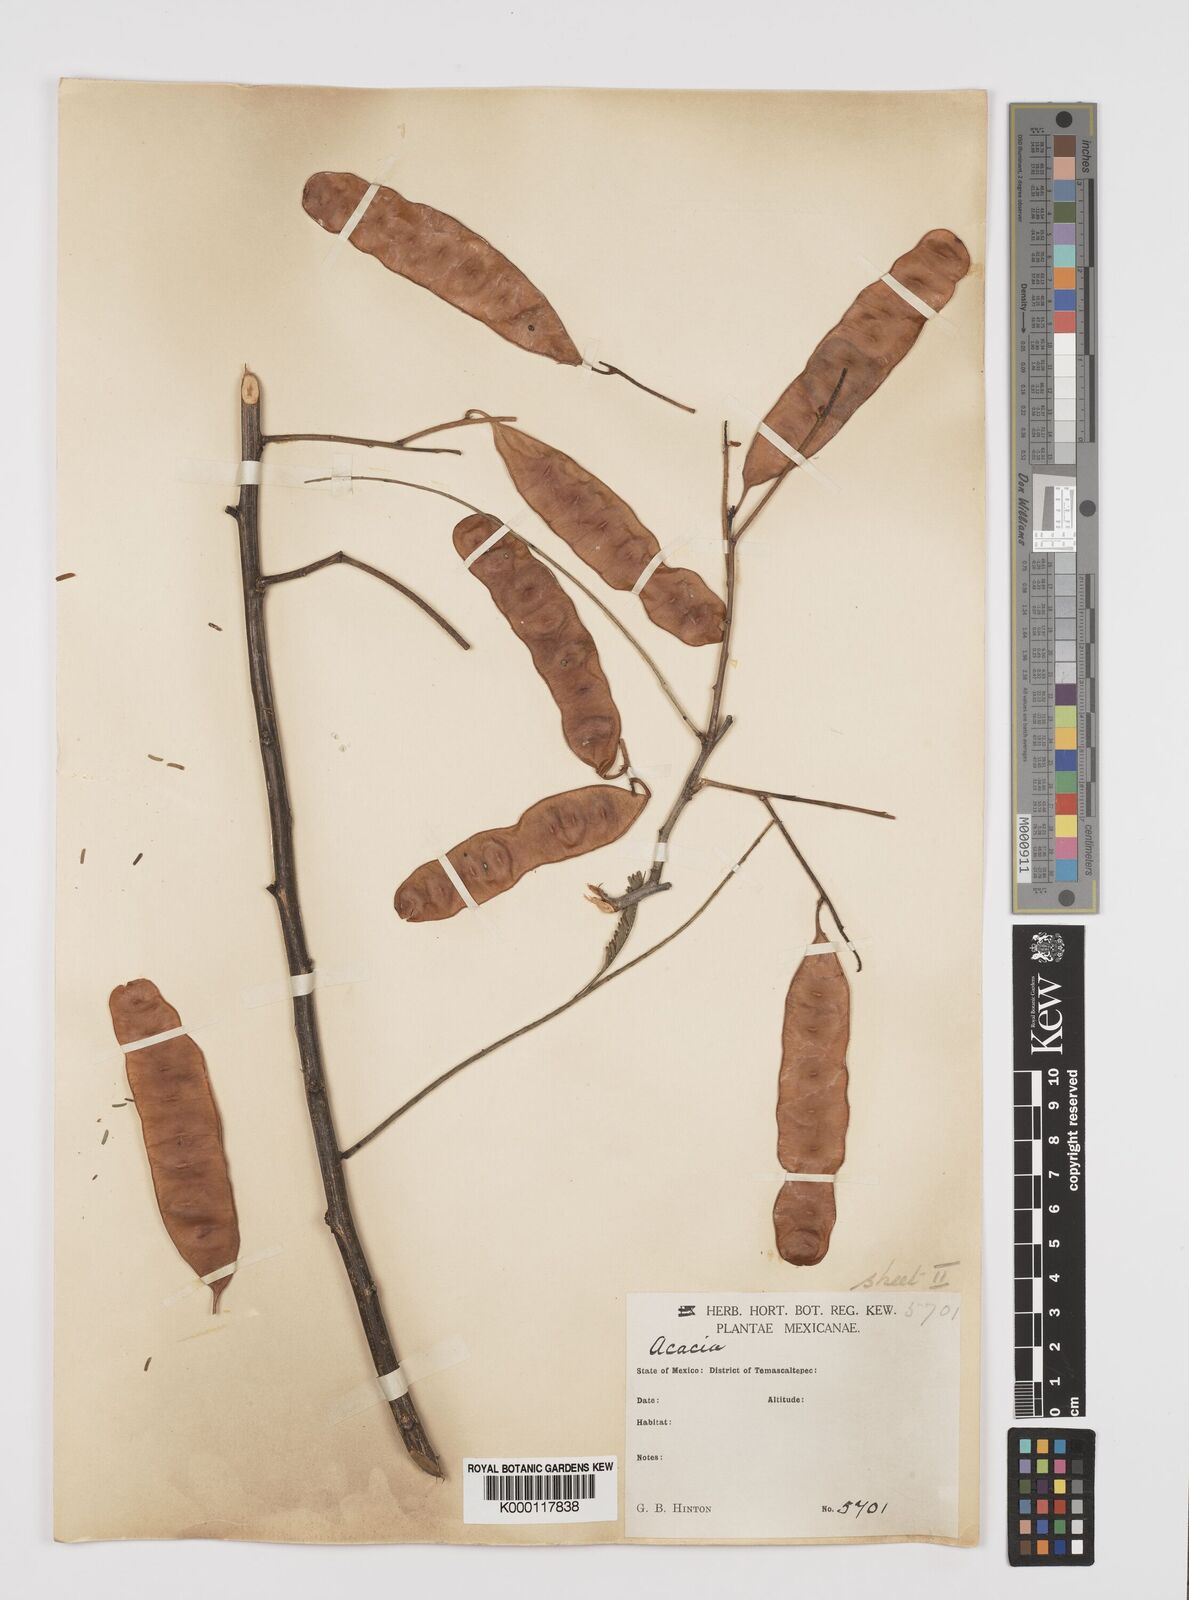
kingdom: Plantae
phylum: Tracheophyta
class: Magnoliopsida
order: Fabales
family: Fabaceae
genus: Senegalia
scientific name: Senegalia macilenta
